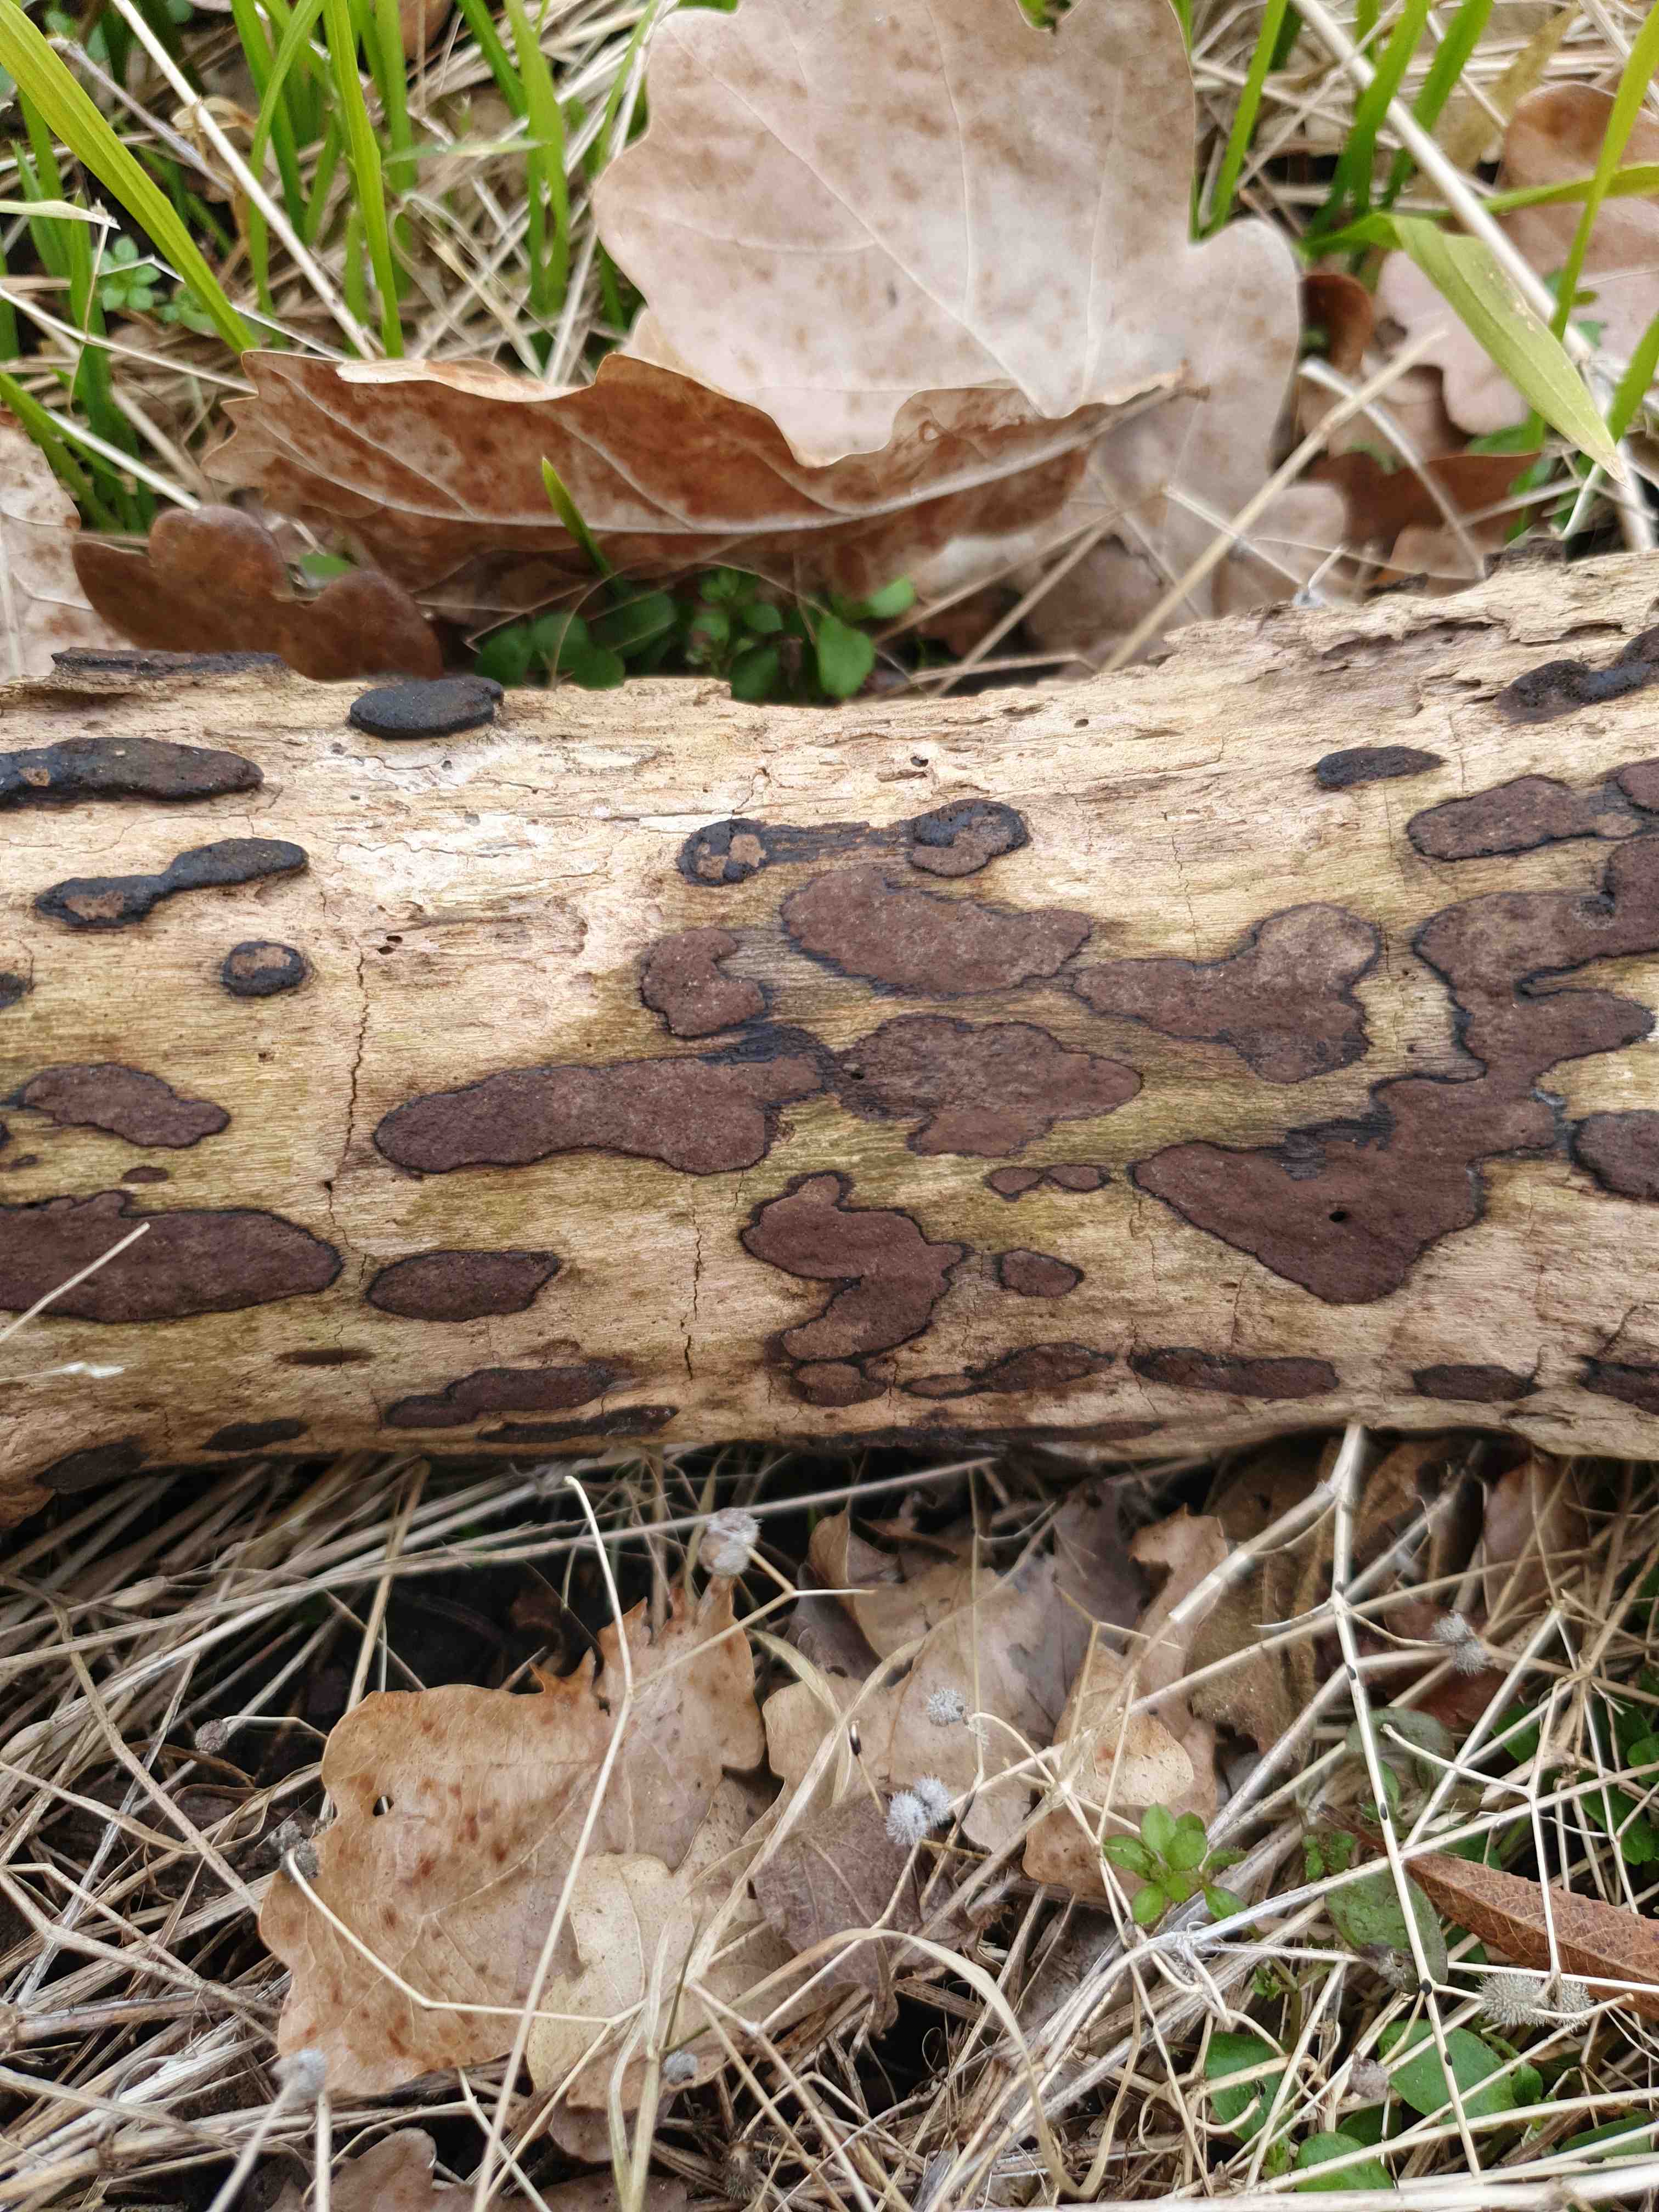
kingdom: Fungi
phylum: Ascomycota
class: Sordariomycetes
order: Xylariales
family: Hypoxylaceae
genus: Hypoxylon
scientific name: Hypoxylon petriniae
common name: nedsænket kulbær
